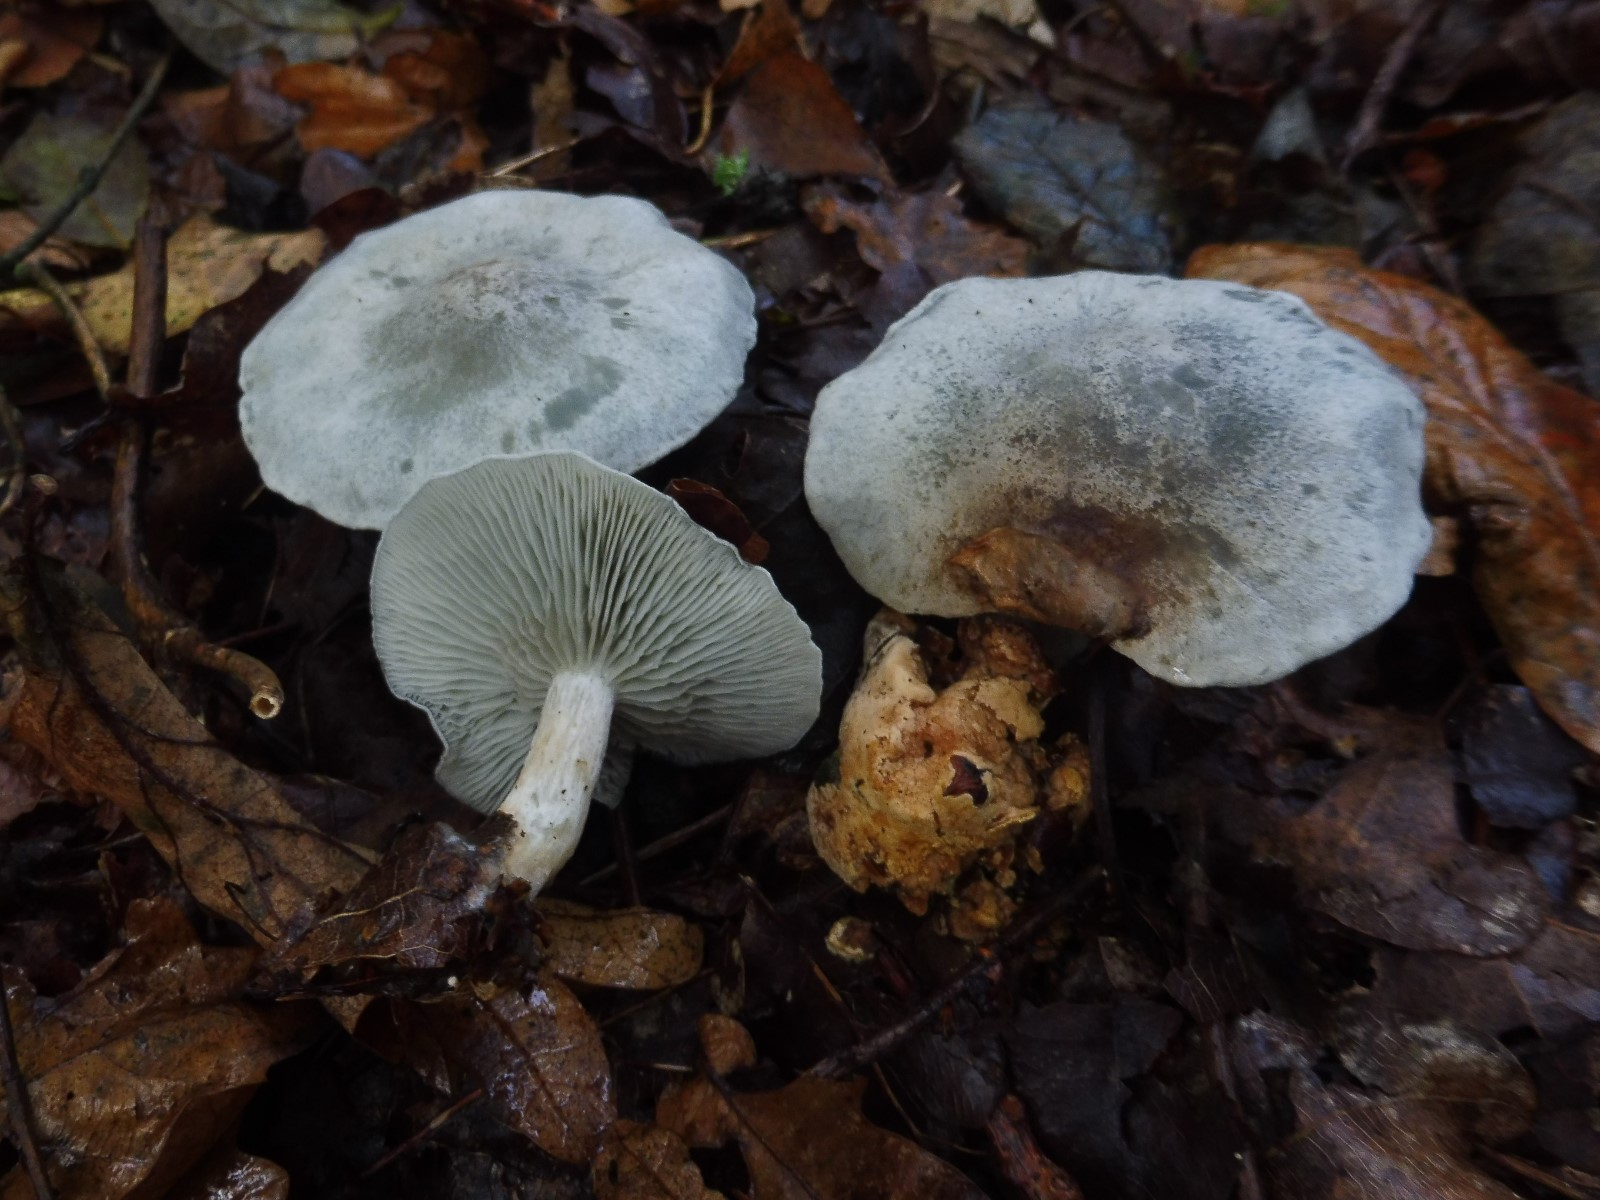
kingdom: Fungi
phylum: Basidiomycota
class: Agaricomycetes
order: Agaricales
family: Tricholomataceae
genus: Clitocybe
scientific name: Clitocybe odora
